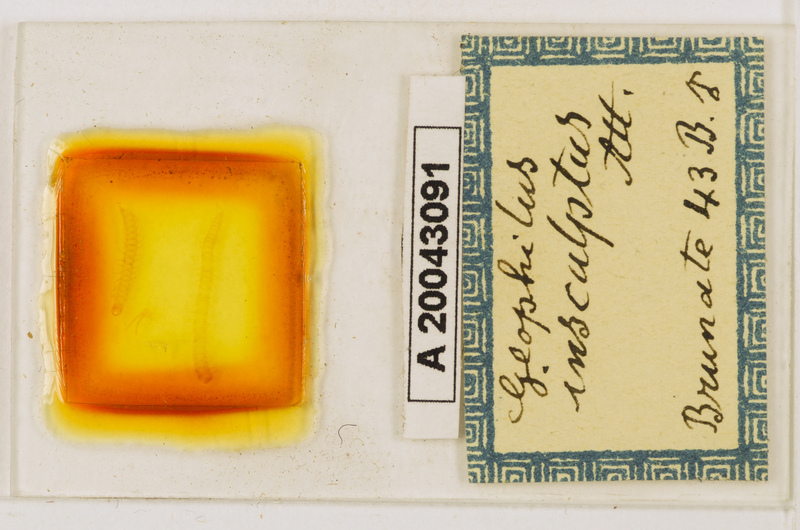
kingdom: Animalia
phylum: Arthropoda
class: Chilopoda
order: Geophilomorpha
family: Geophilidae
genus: Geophilus
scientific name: Geophilus insculptus
